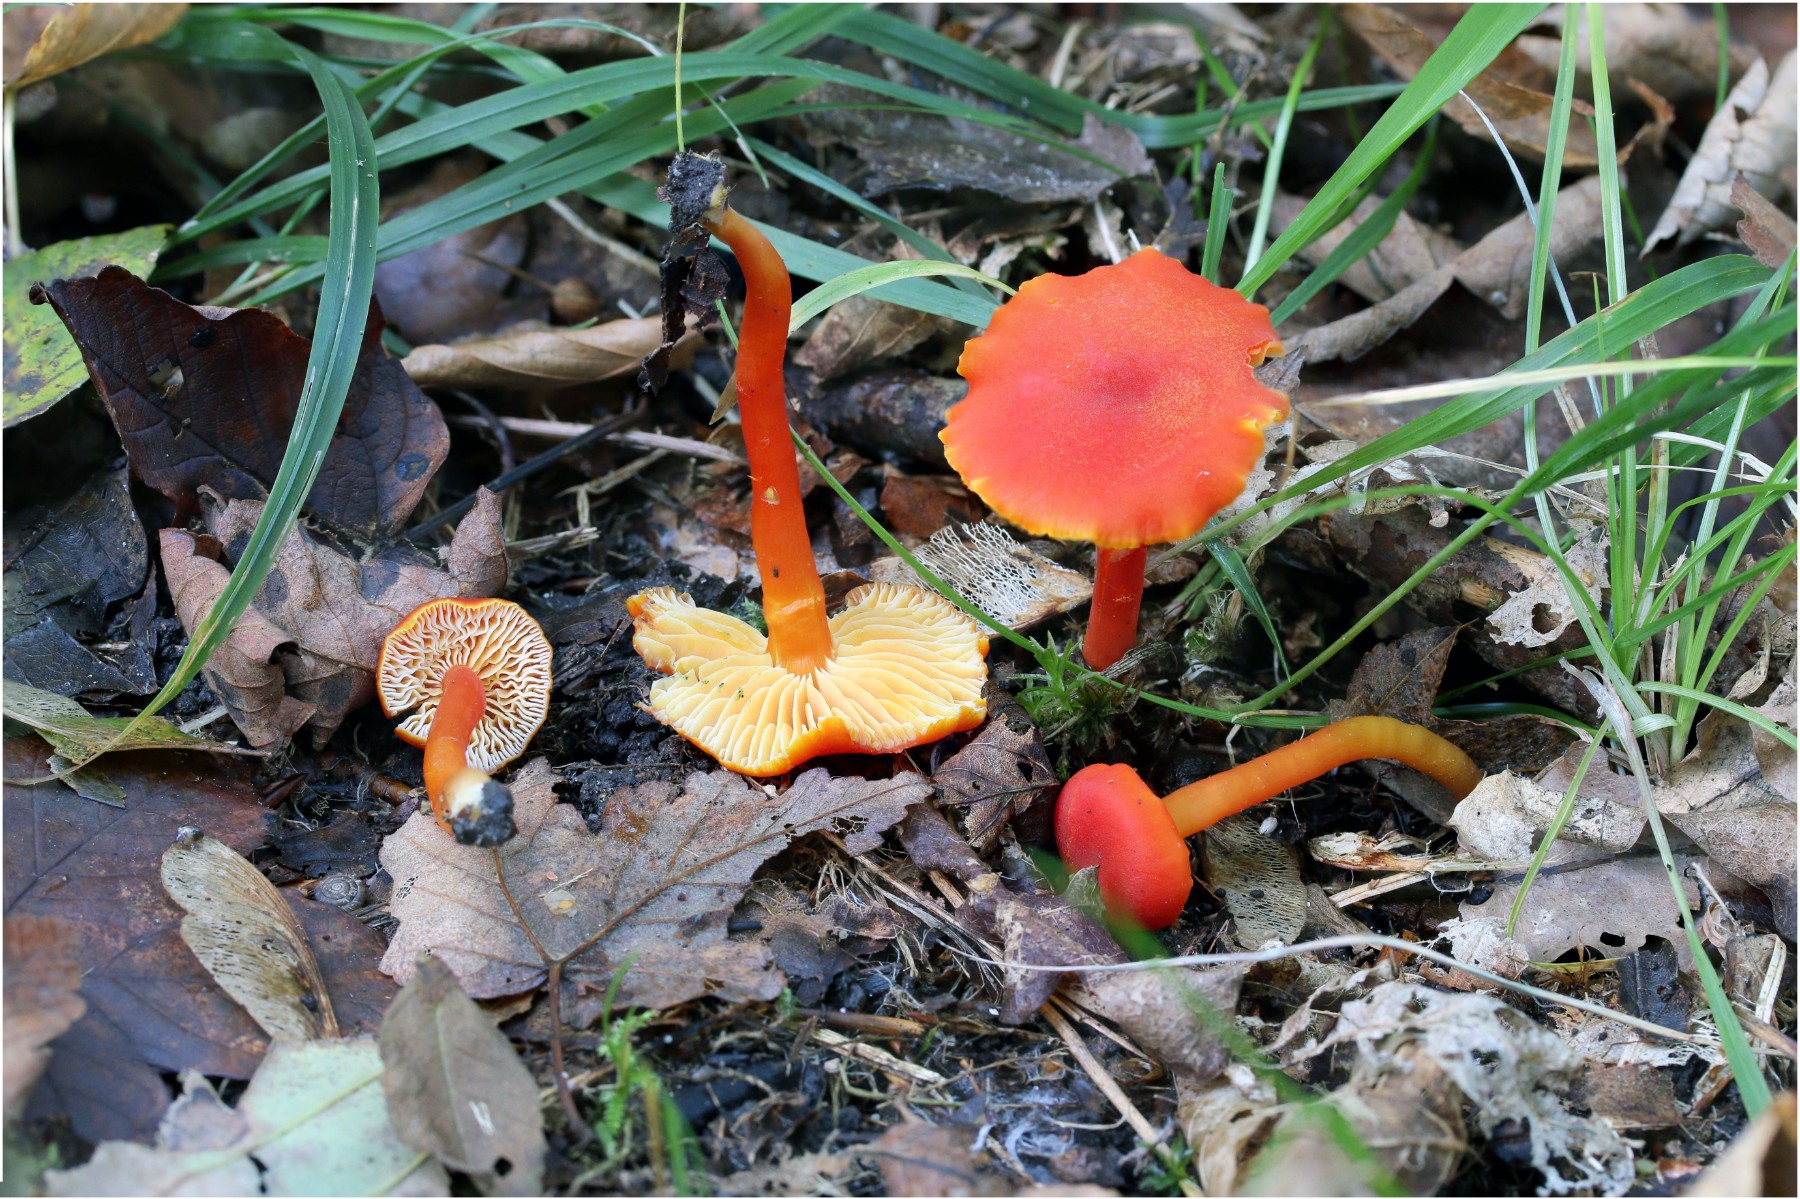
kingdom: Fungi
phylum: Basidiomycota
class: Agaricomycetes
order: Agaricales
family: Hygrophoraceae
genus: Hygrocybe
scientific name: Hygrocybe miniata
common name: mønje-vokshat
